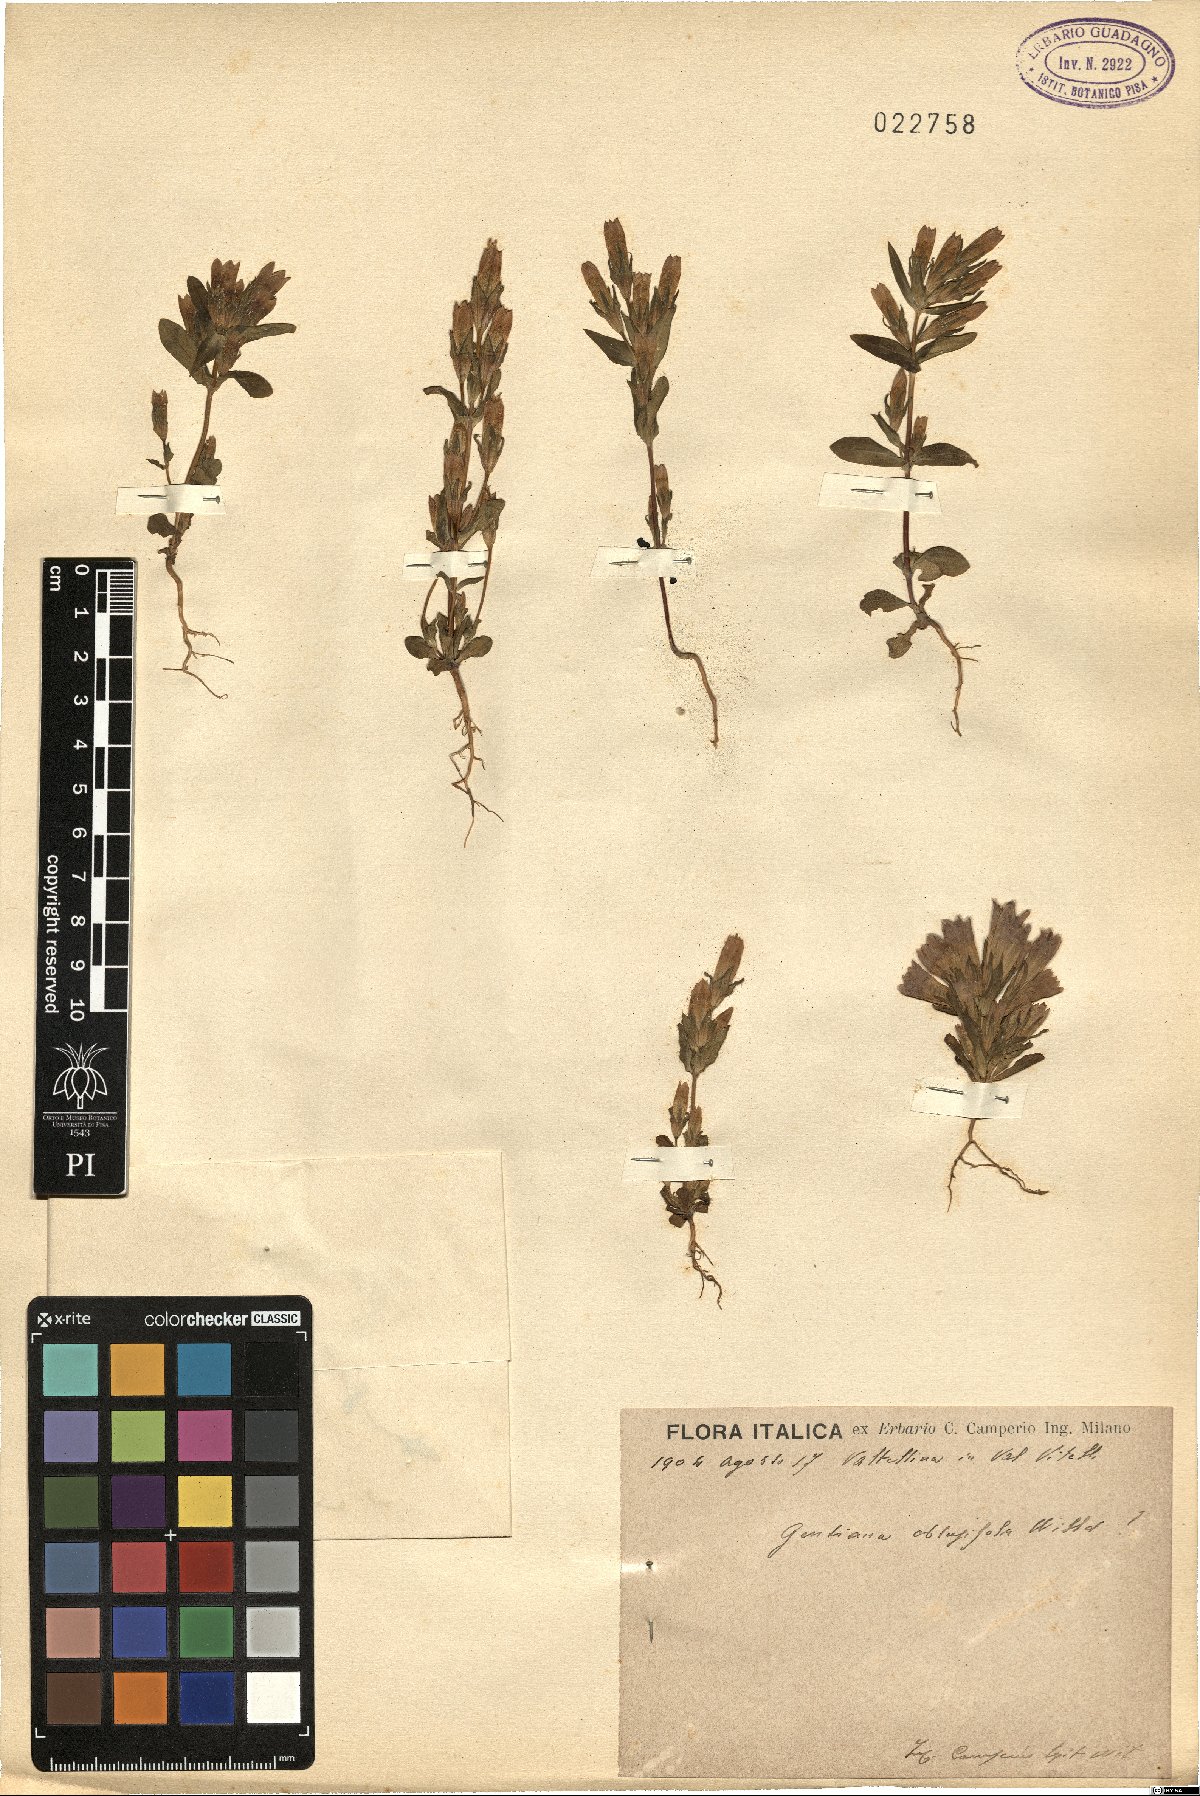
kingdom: Plantae
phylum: Tracheophyta
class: Magnoliopsida
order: Gentianales
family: Gentianaceae
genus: Gentianella
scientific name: Gentianella obtusifolia
